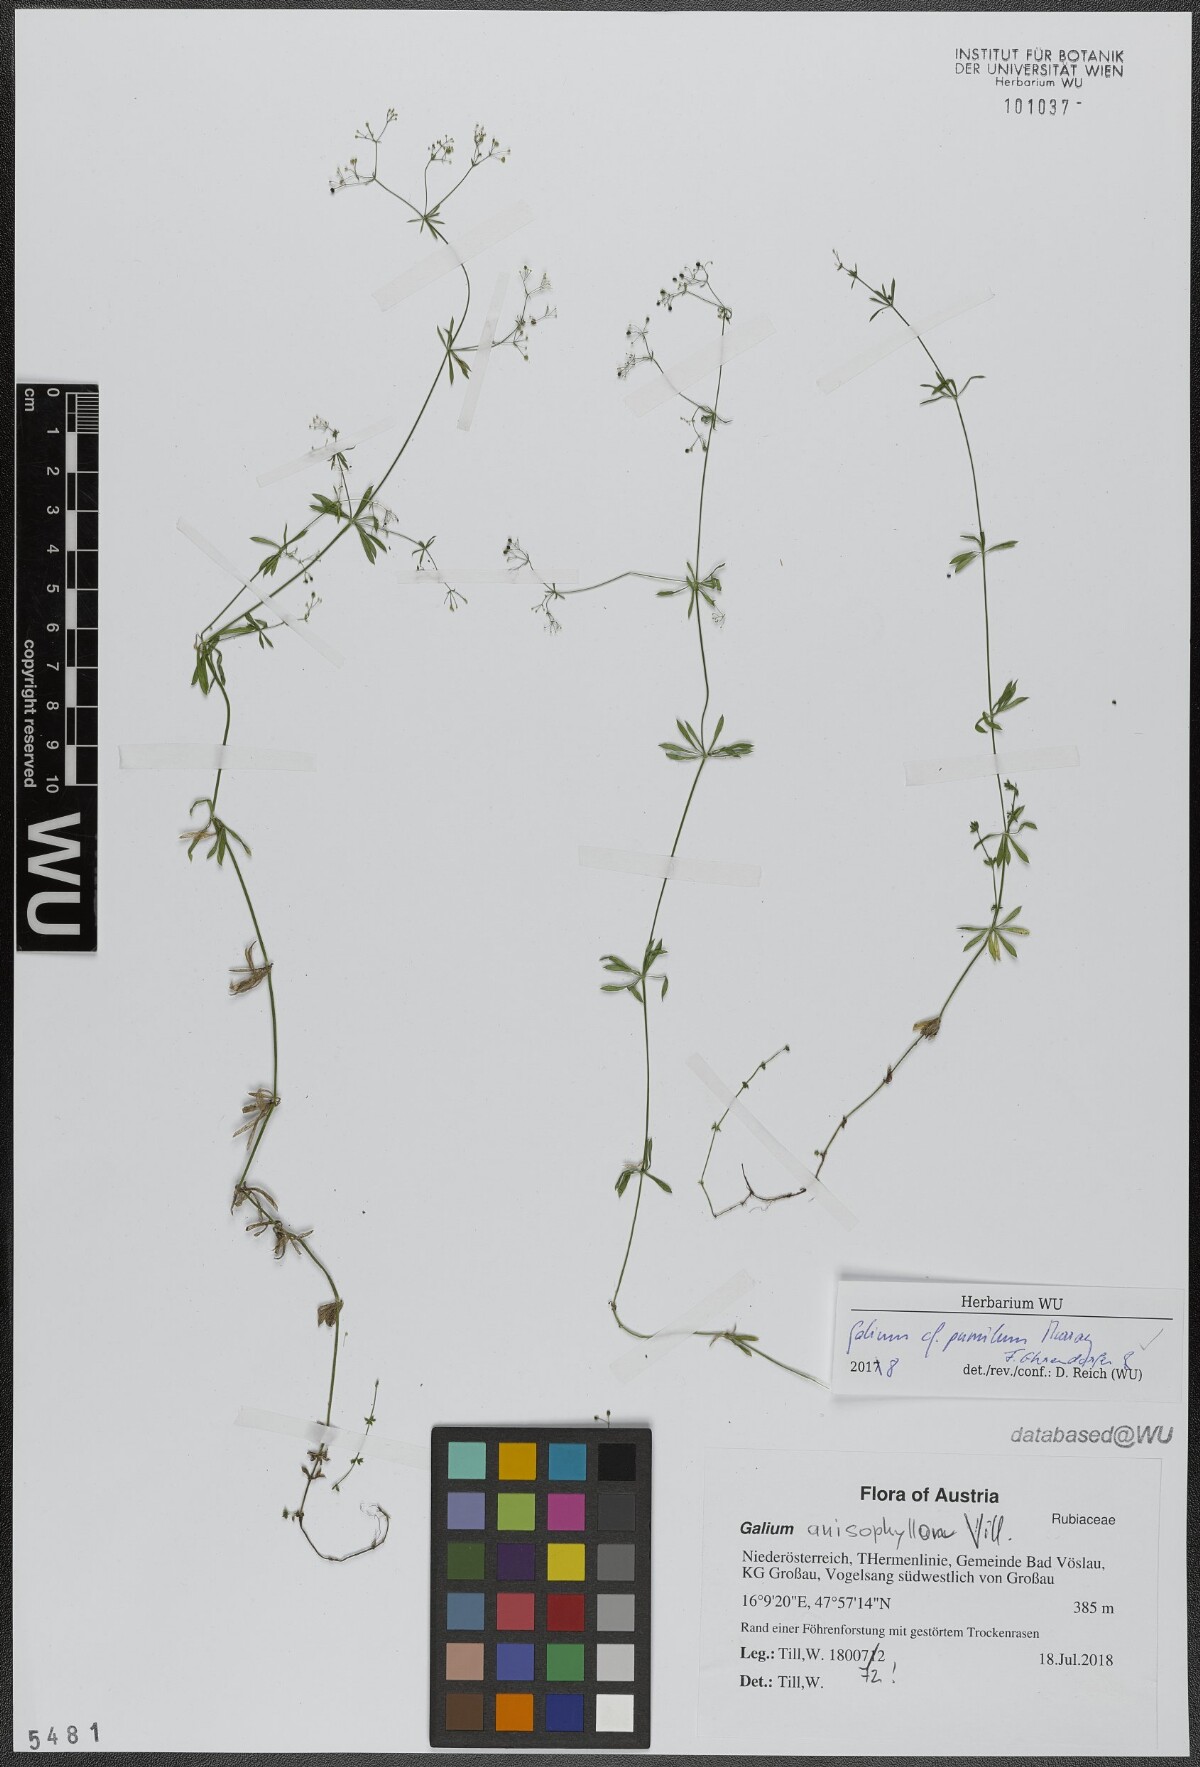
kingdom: Plantae
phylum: Tracheophyta
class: Magnoliopsida
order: Gentianales
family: Rubiaceae
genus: Galium
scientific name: Galium pumilum
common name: Slender bedstraw
